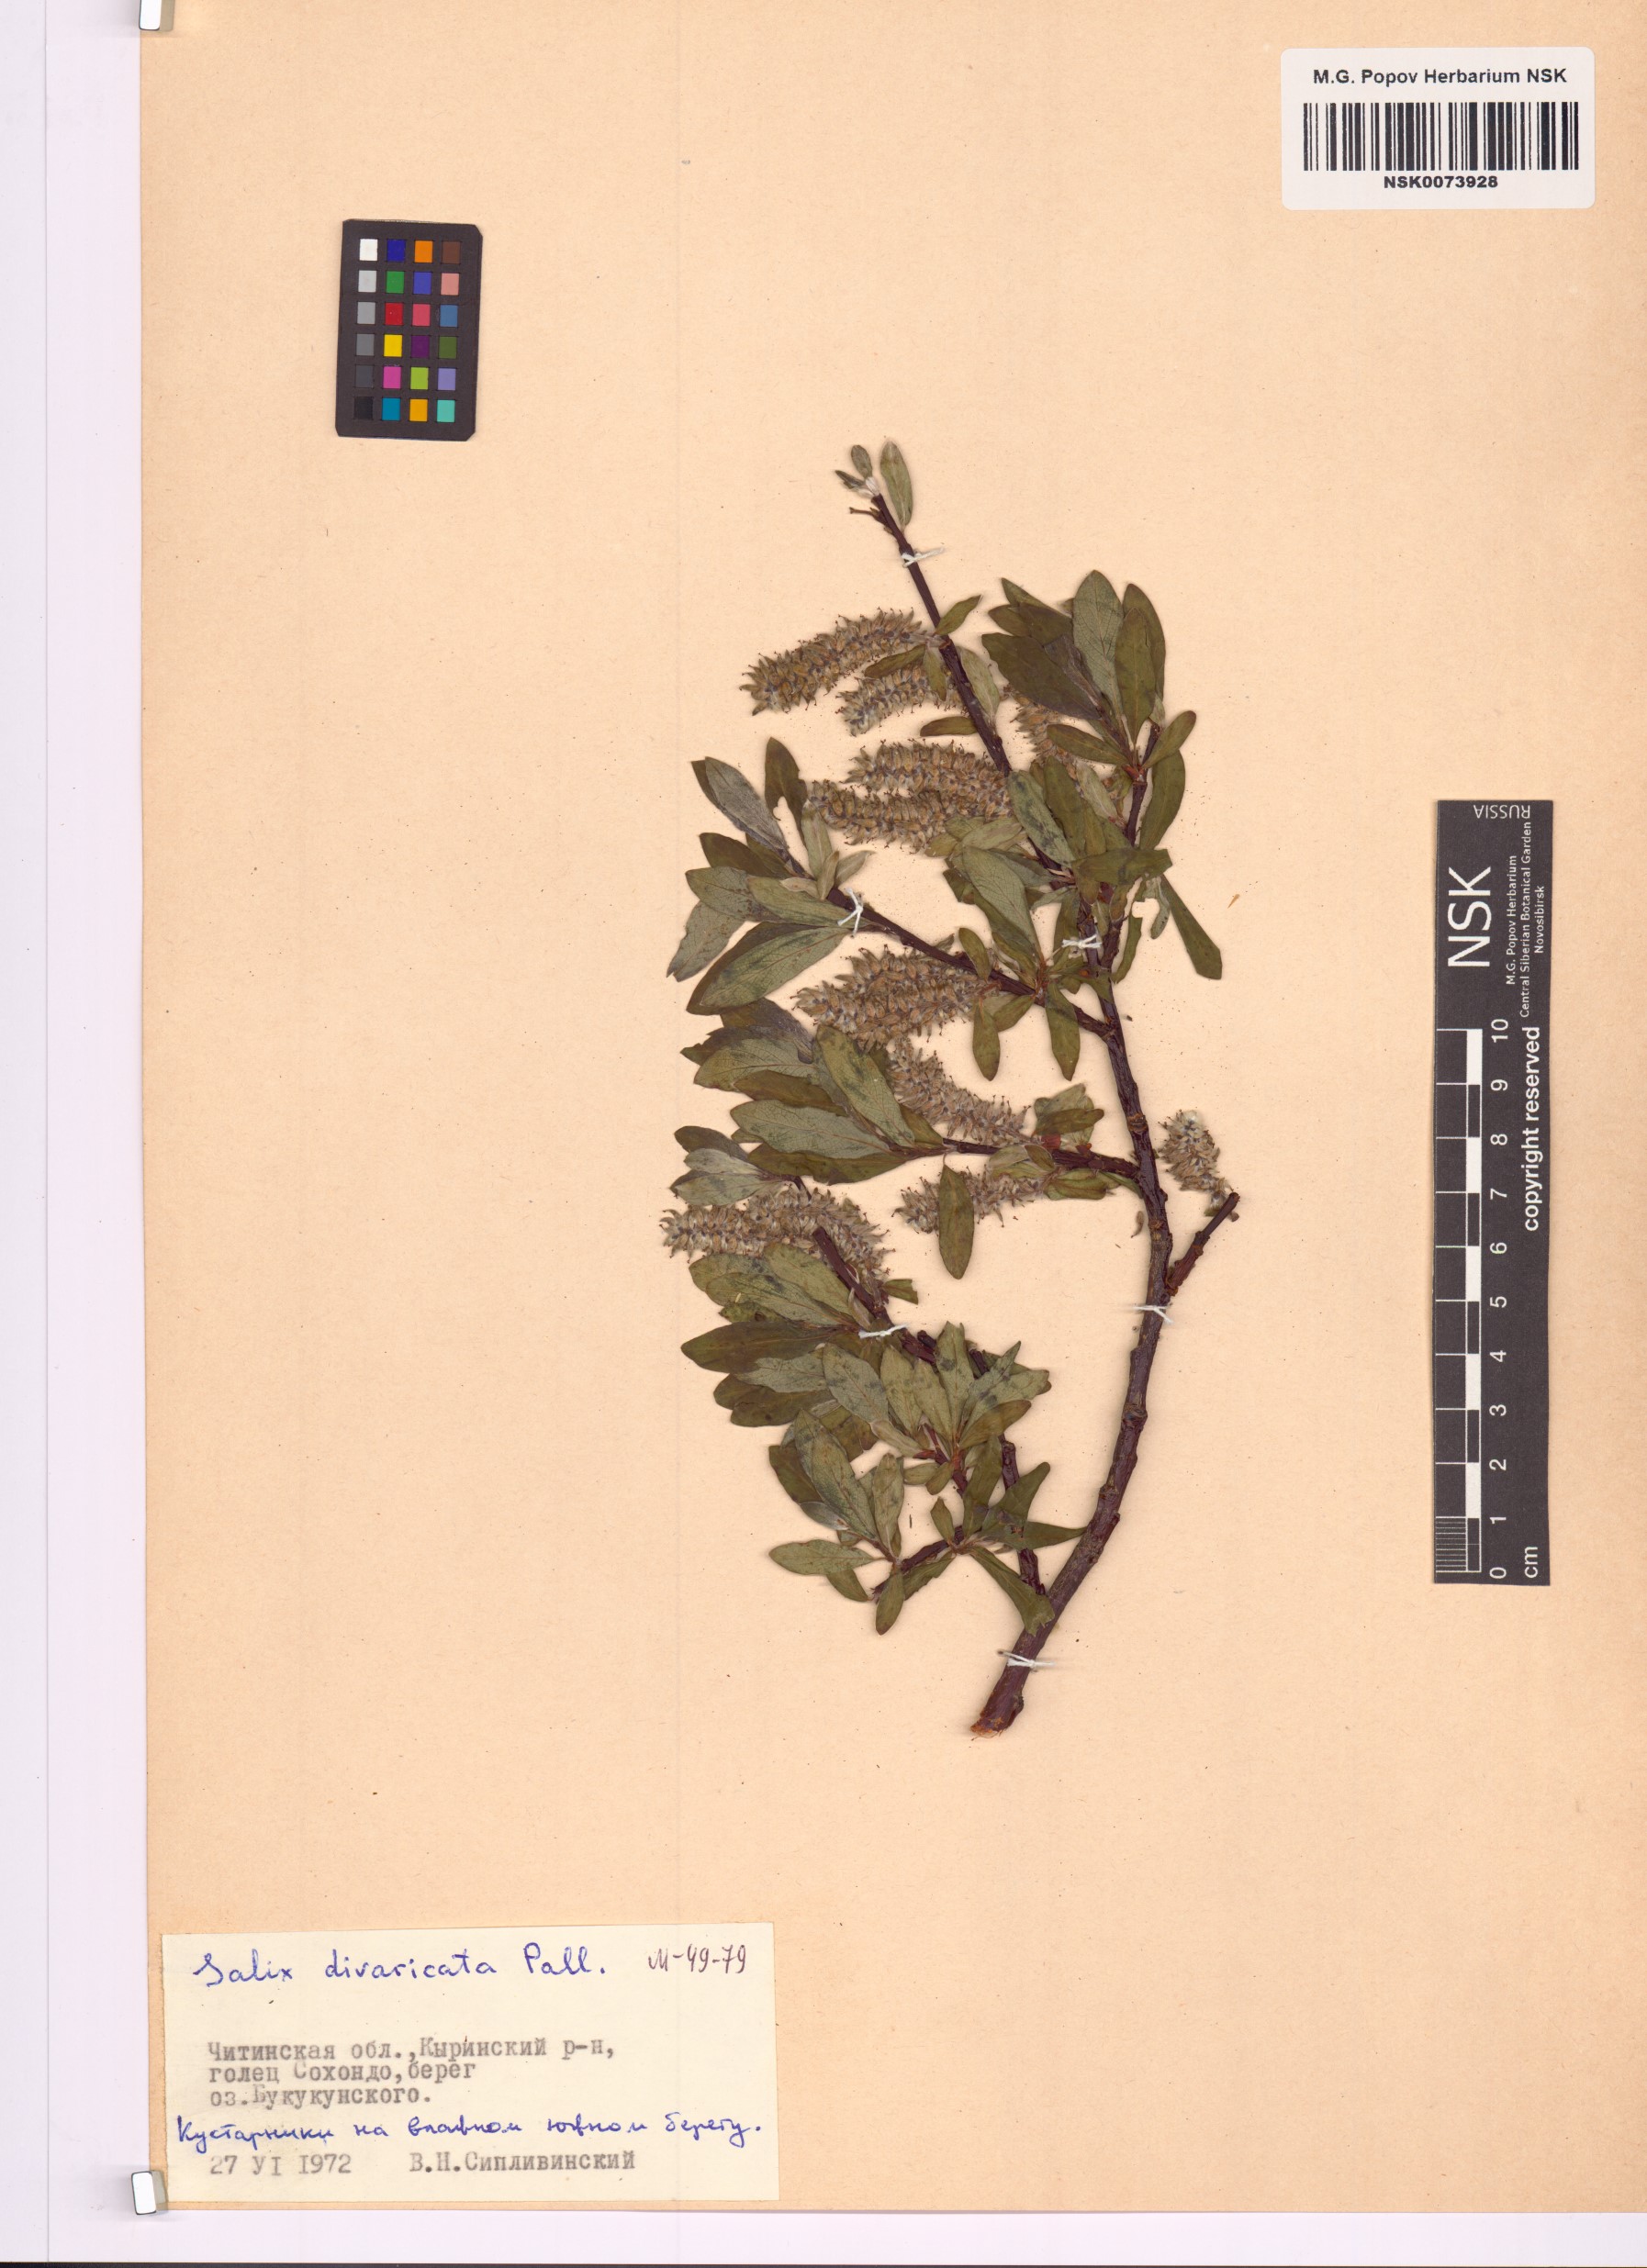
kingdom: Plantae
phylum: Tracheophyta
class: Magnoliopsida
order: Malpighiales
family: Salicaceae
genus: Salix
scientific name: Salix divaricata
